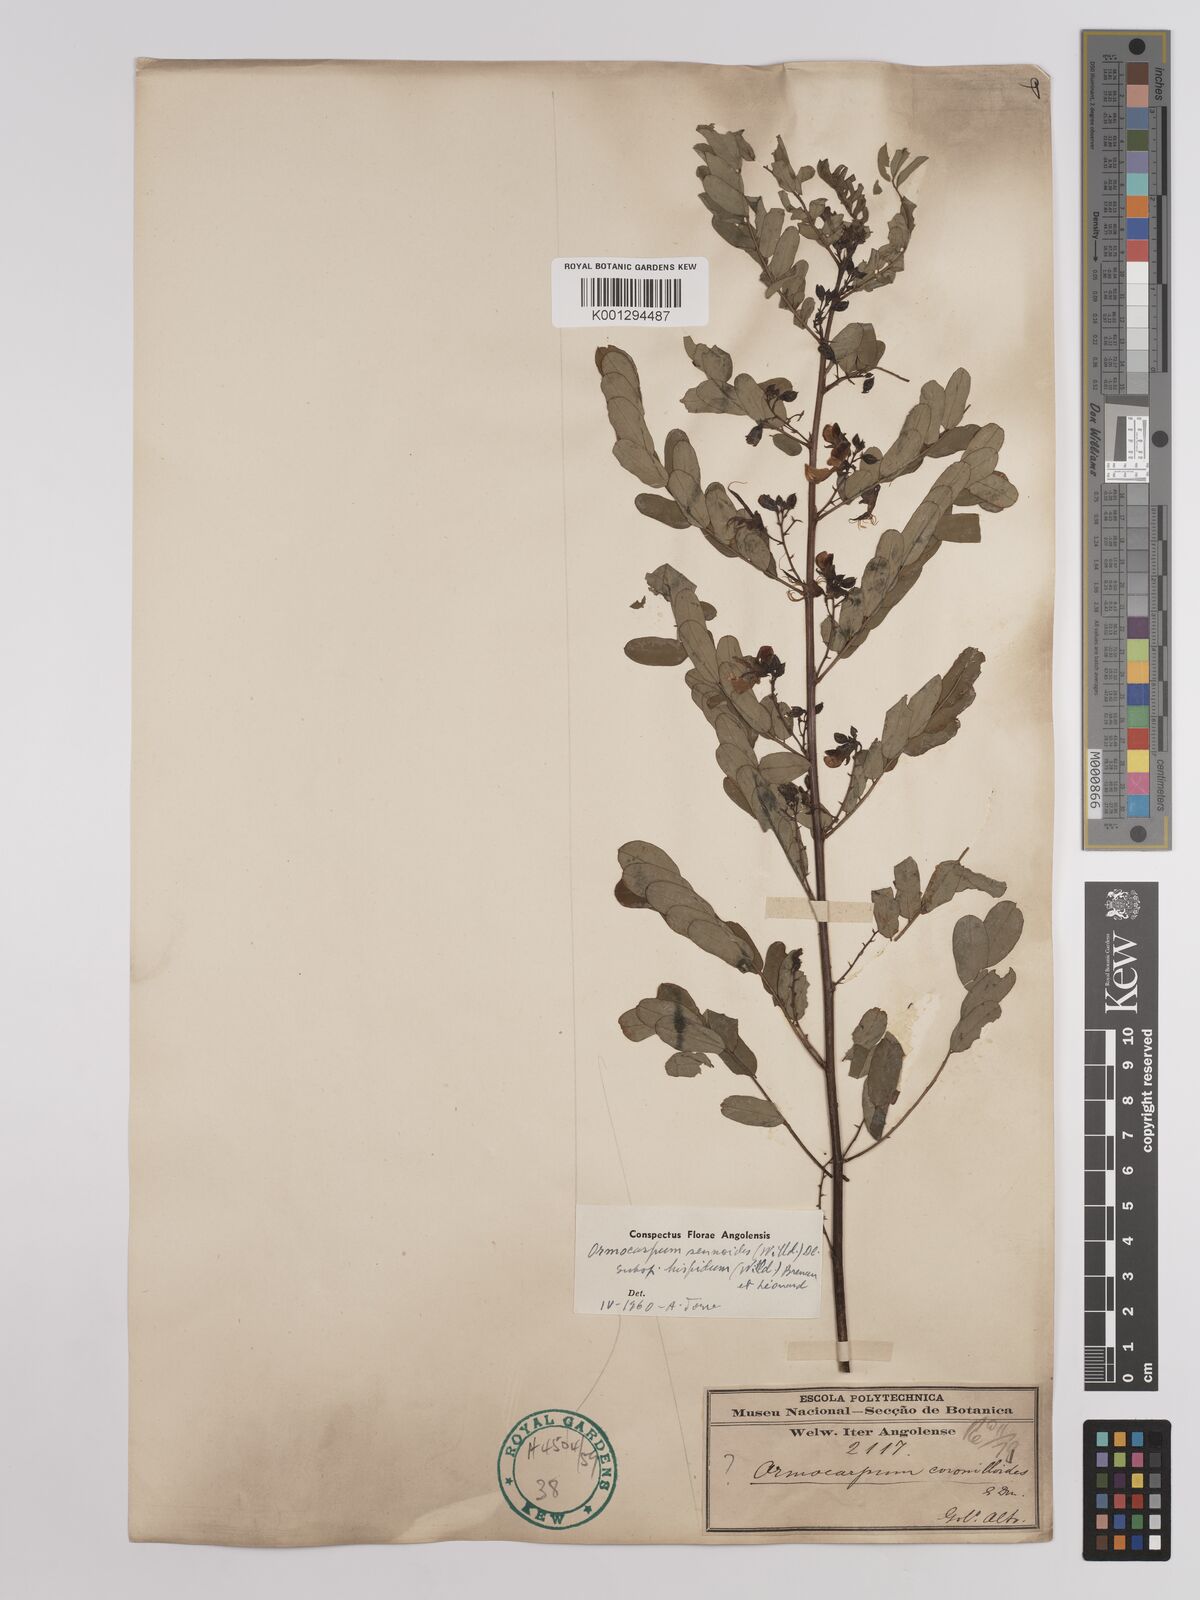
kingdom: Plantae
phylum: Tracheophyta
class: Magnoliopsida
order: Fabales
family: Fabaceae
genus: Ormocarpum
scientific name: Ormocarpum sennoides
